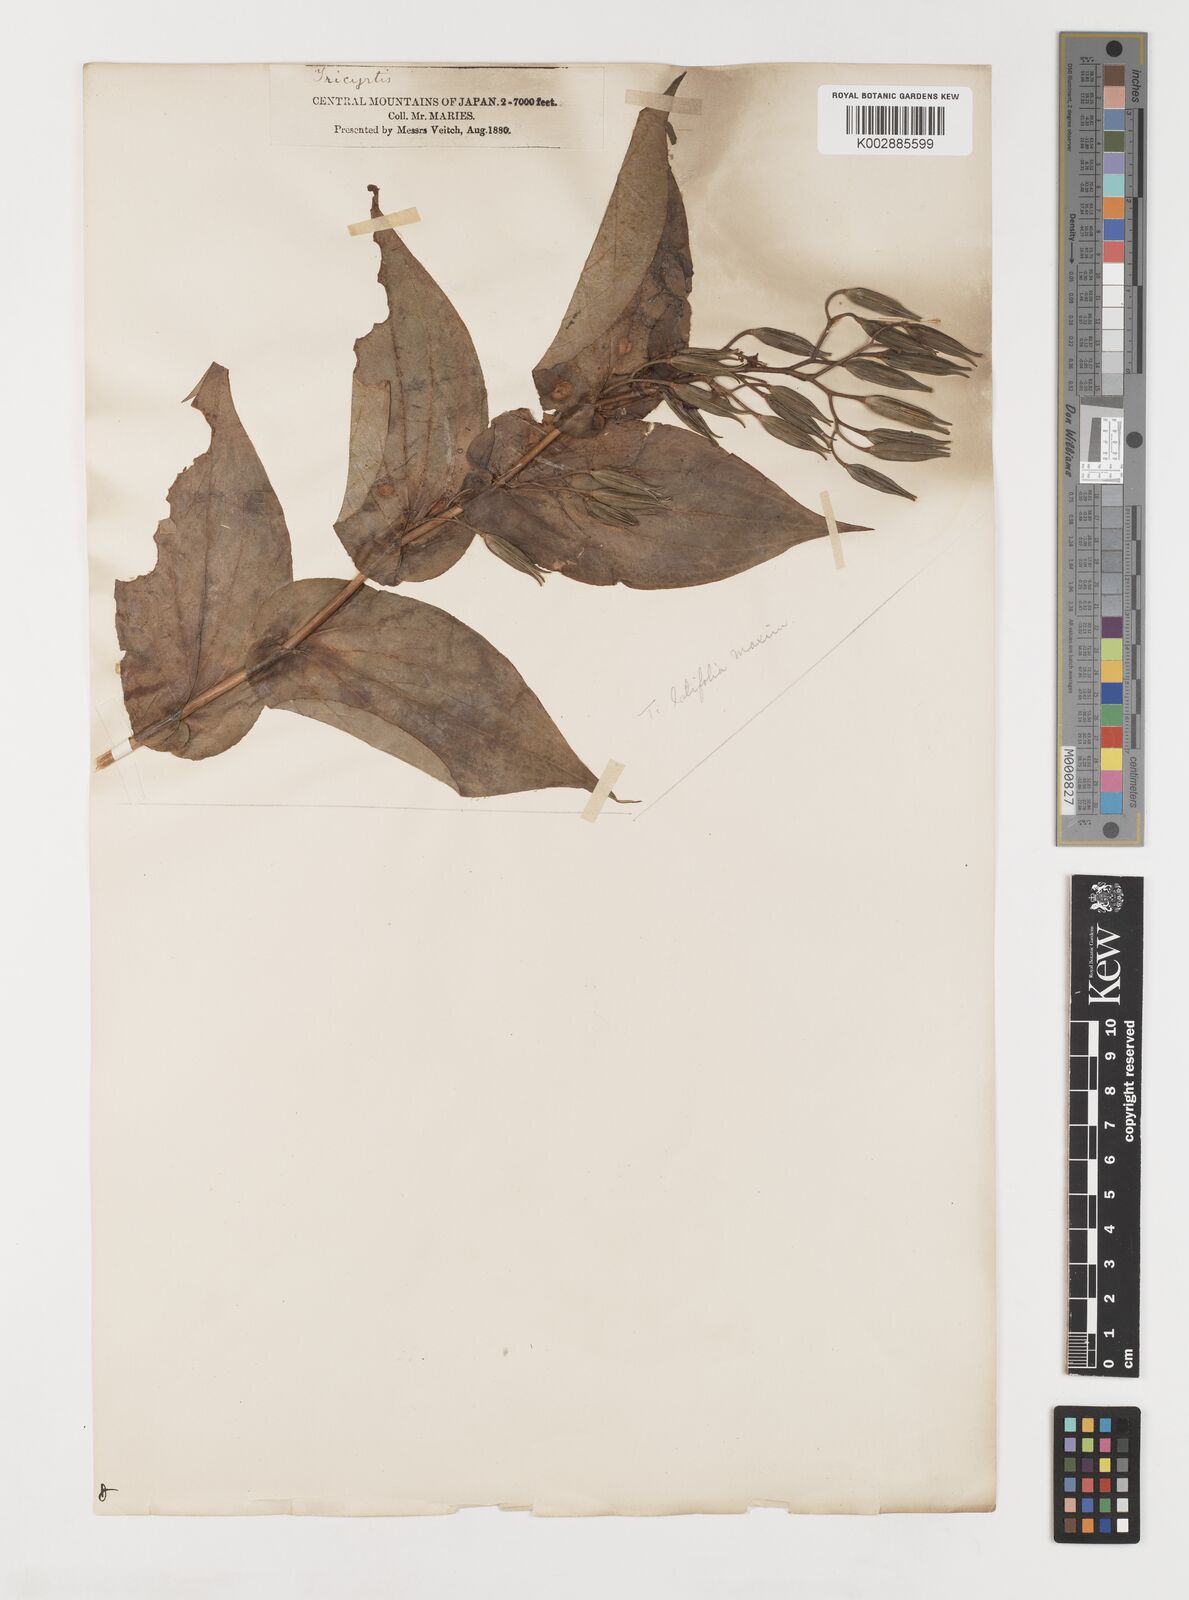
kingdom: Plantae
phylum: Tracheophyta
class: Liliopsida
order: Liliales
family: Liliaceae
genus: Tricyrtis
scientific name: Tricyrtis latifolia
